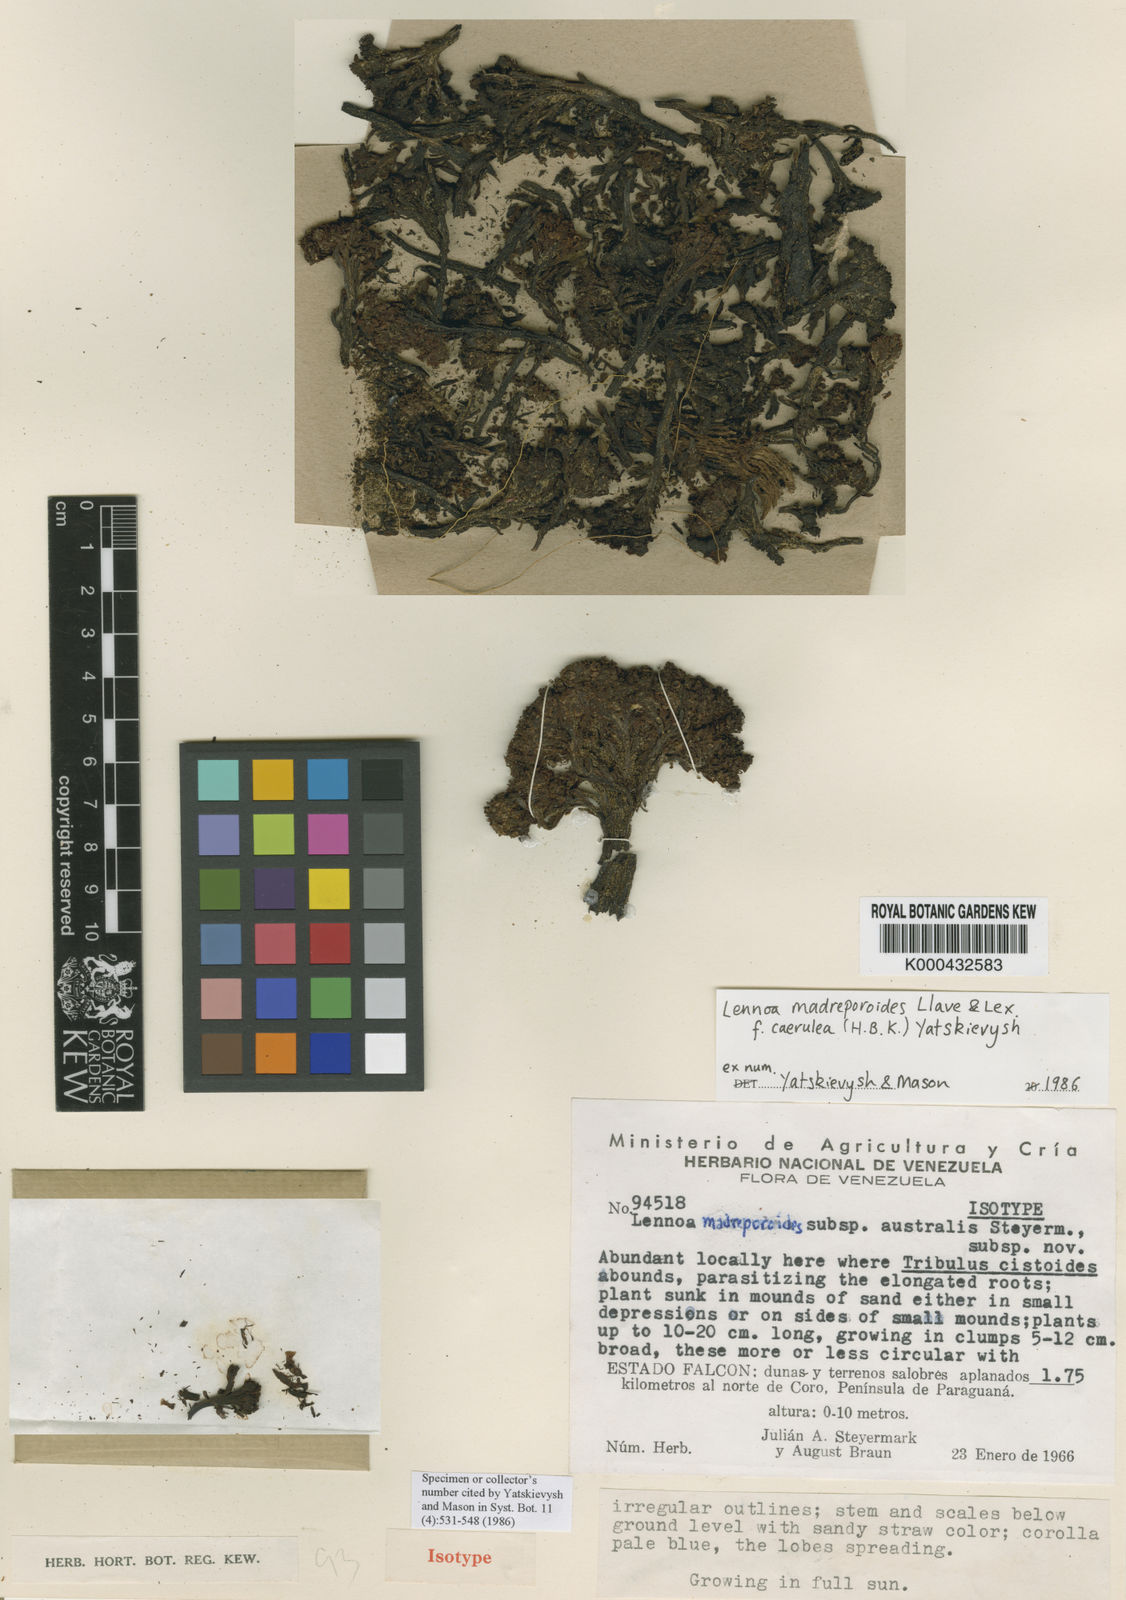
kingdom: Plantae
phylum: Tracheophyta
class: Magnoliopsida
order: Boraginales
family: Lennoaceae
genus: Lennoa
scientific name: Lennoa madreporoides
